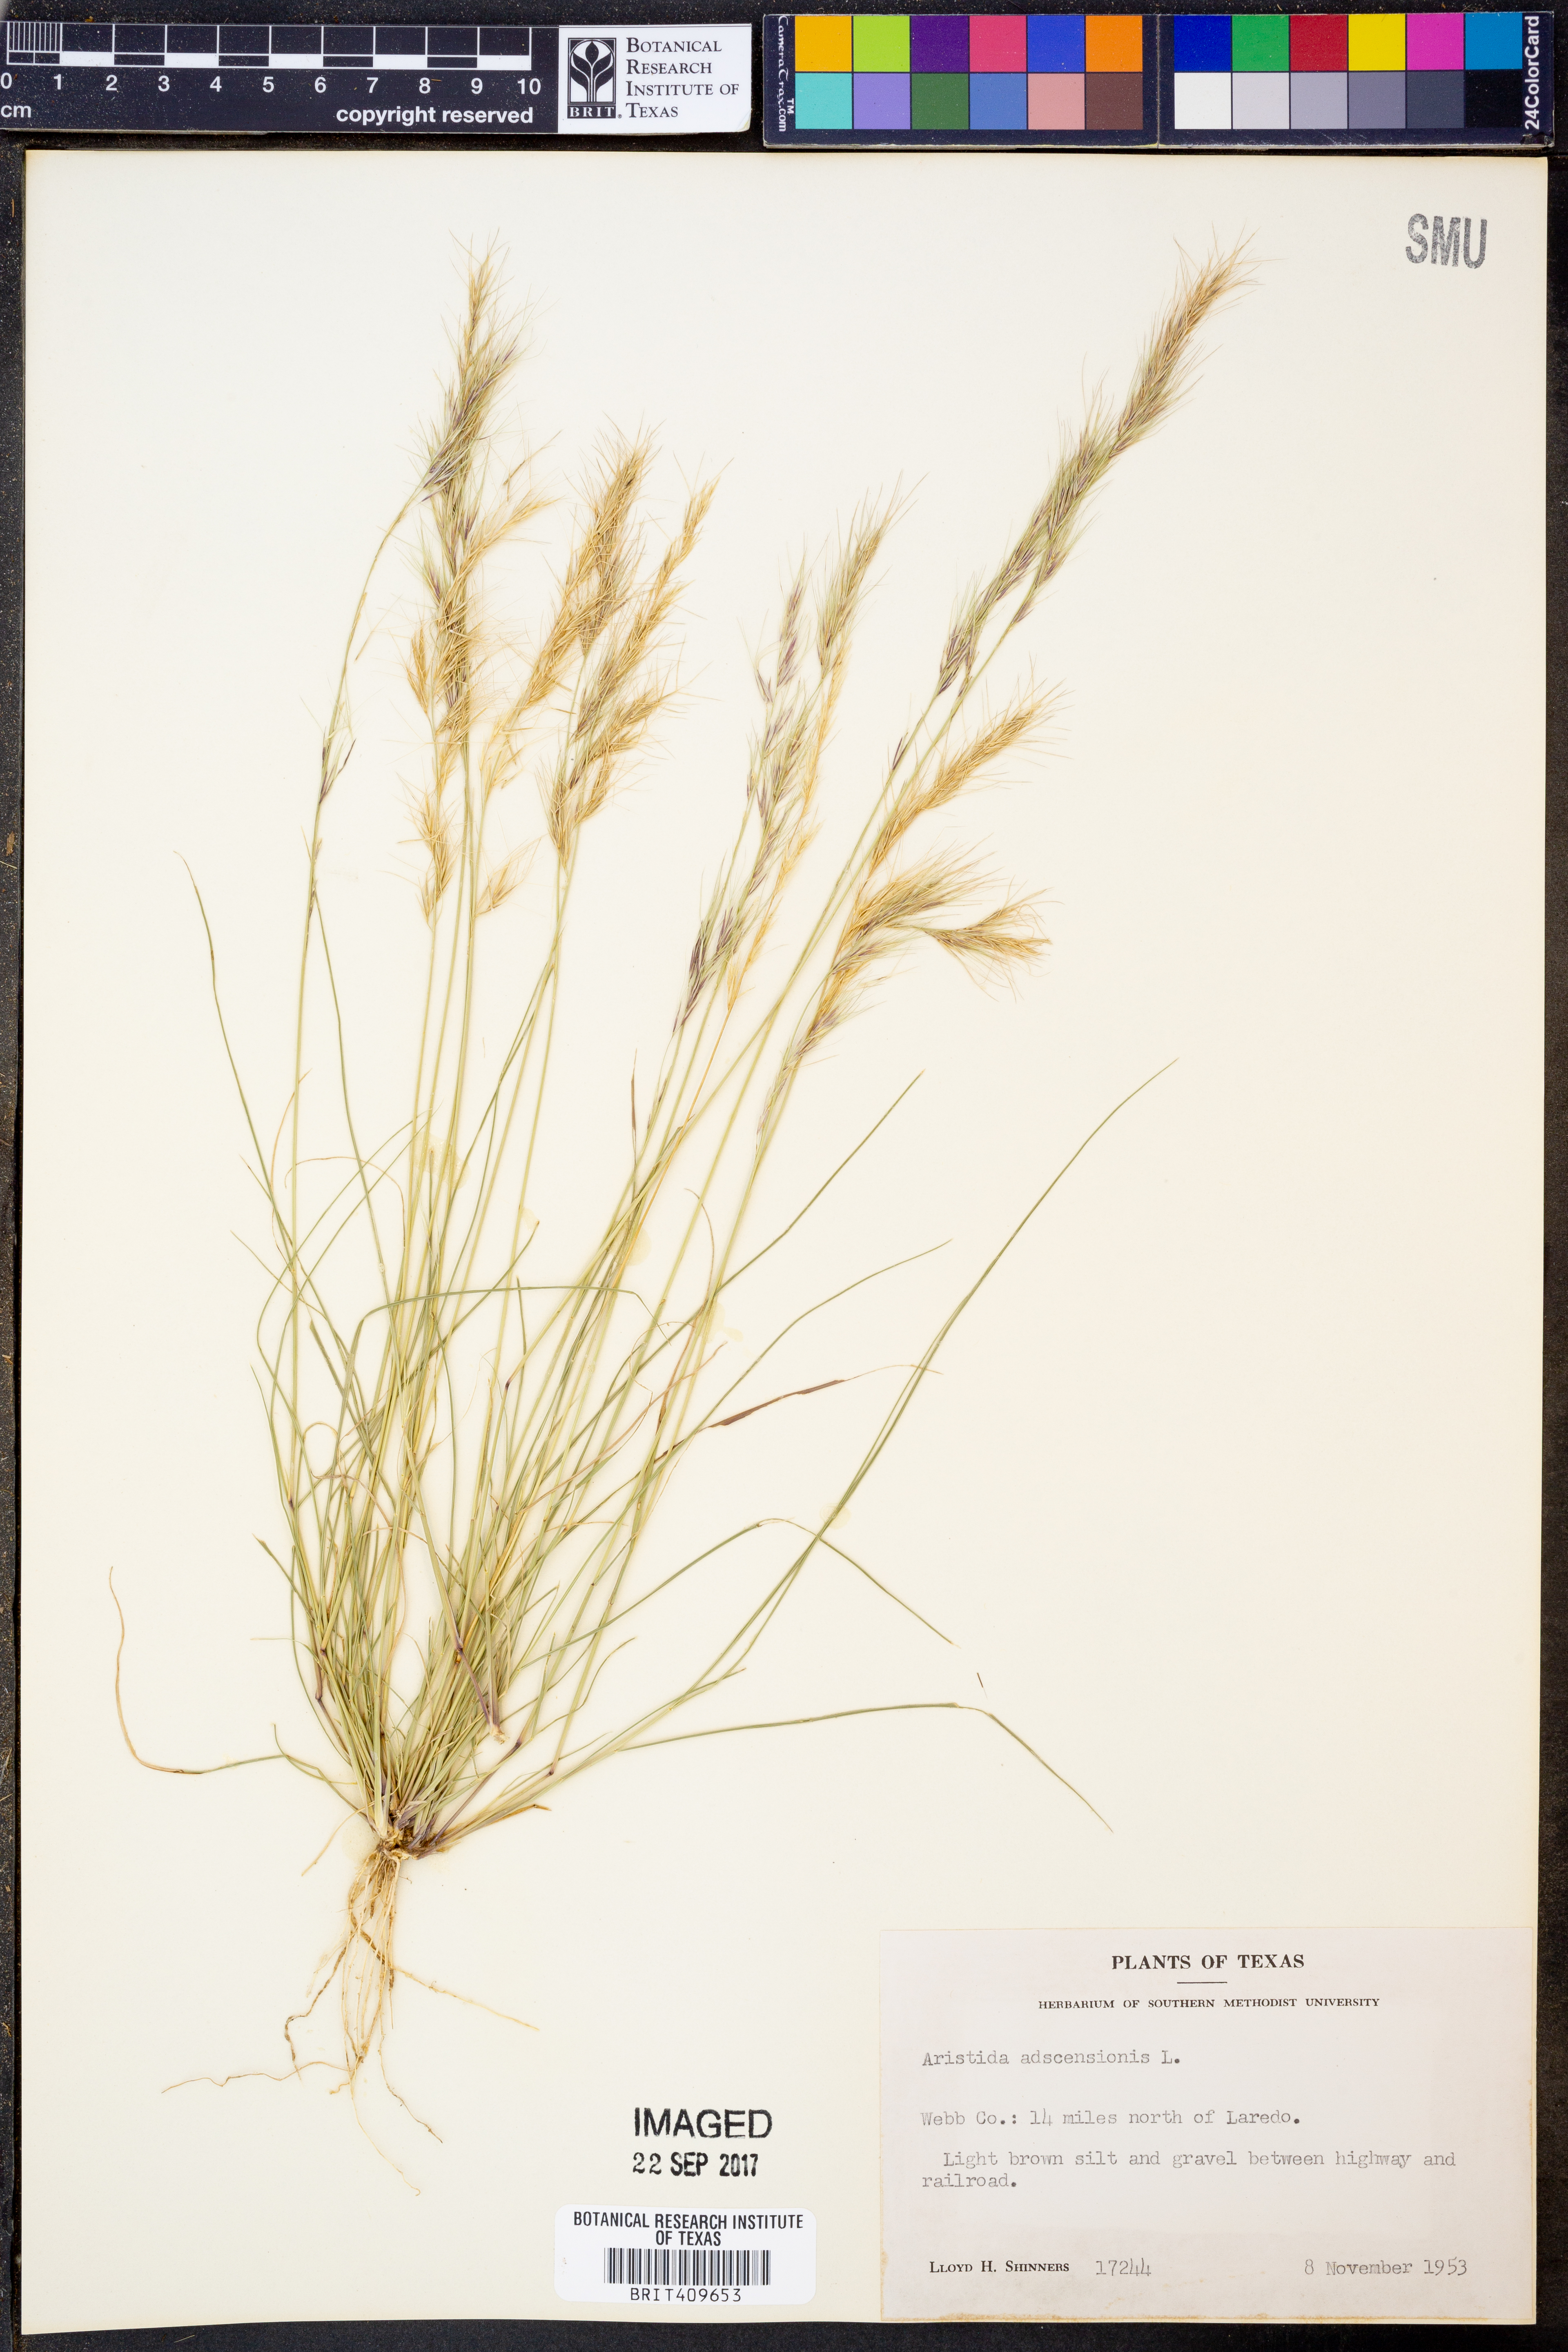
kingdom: Plantae
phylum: Tracheophyta
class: Liliopsida
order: Poales
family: Poaceae
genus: Aristida
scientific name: Aristida adscensionis
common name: Sixweeks threeawn
